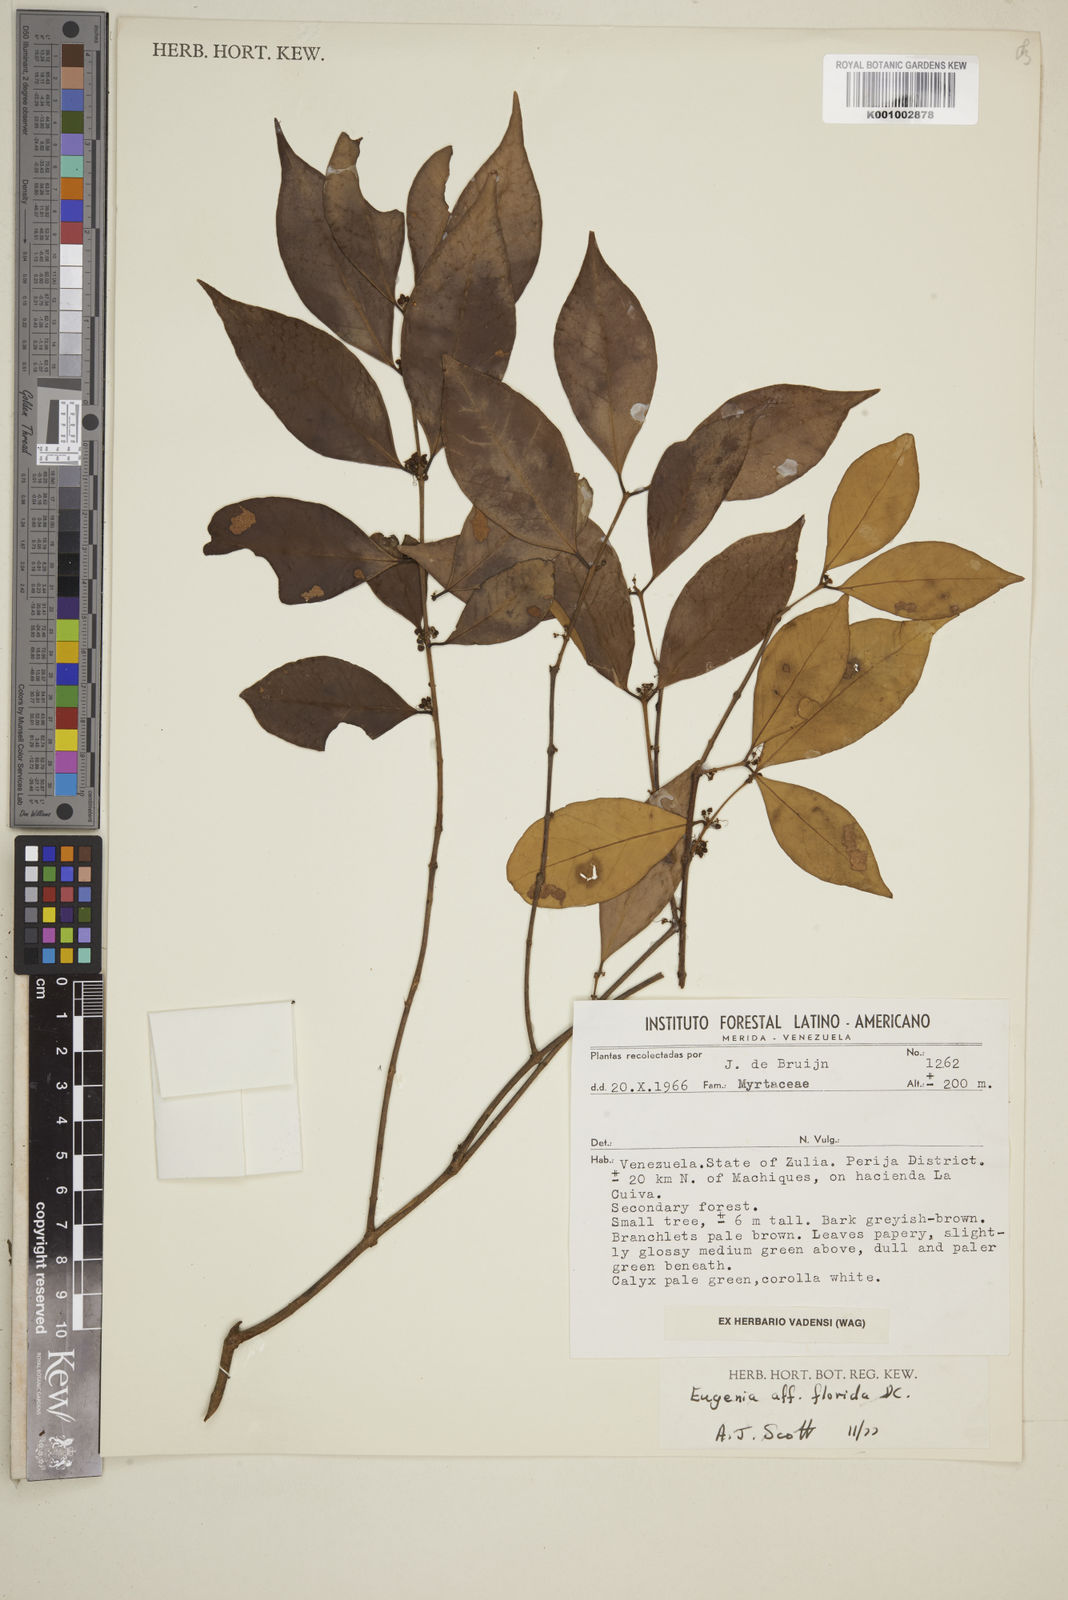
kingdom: Plantae
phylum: Tracheophyta
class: Magnoliopsida
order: Myrtales
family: Myrtaceae
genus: Eugenia
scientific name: Eugenia florida
